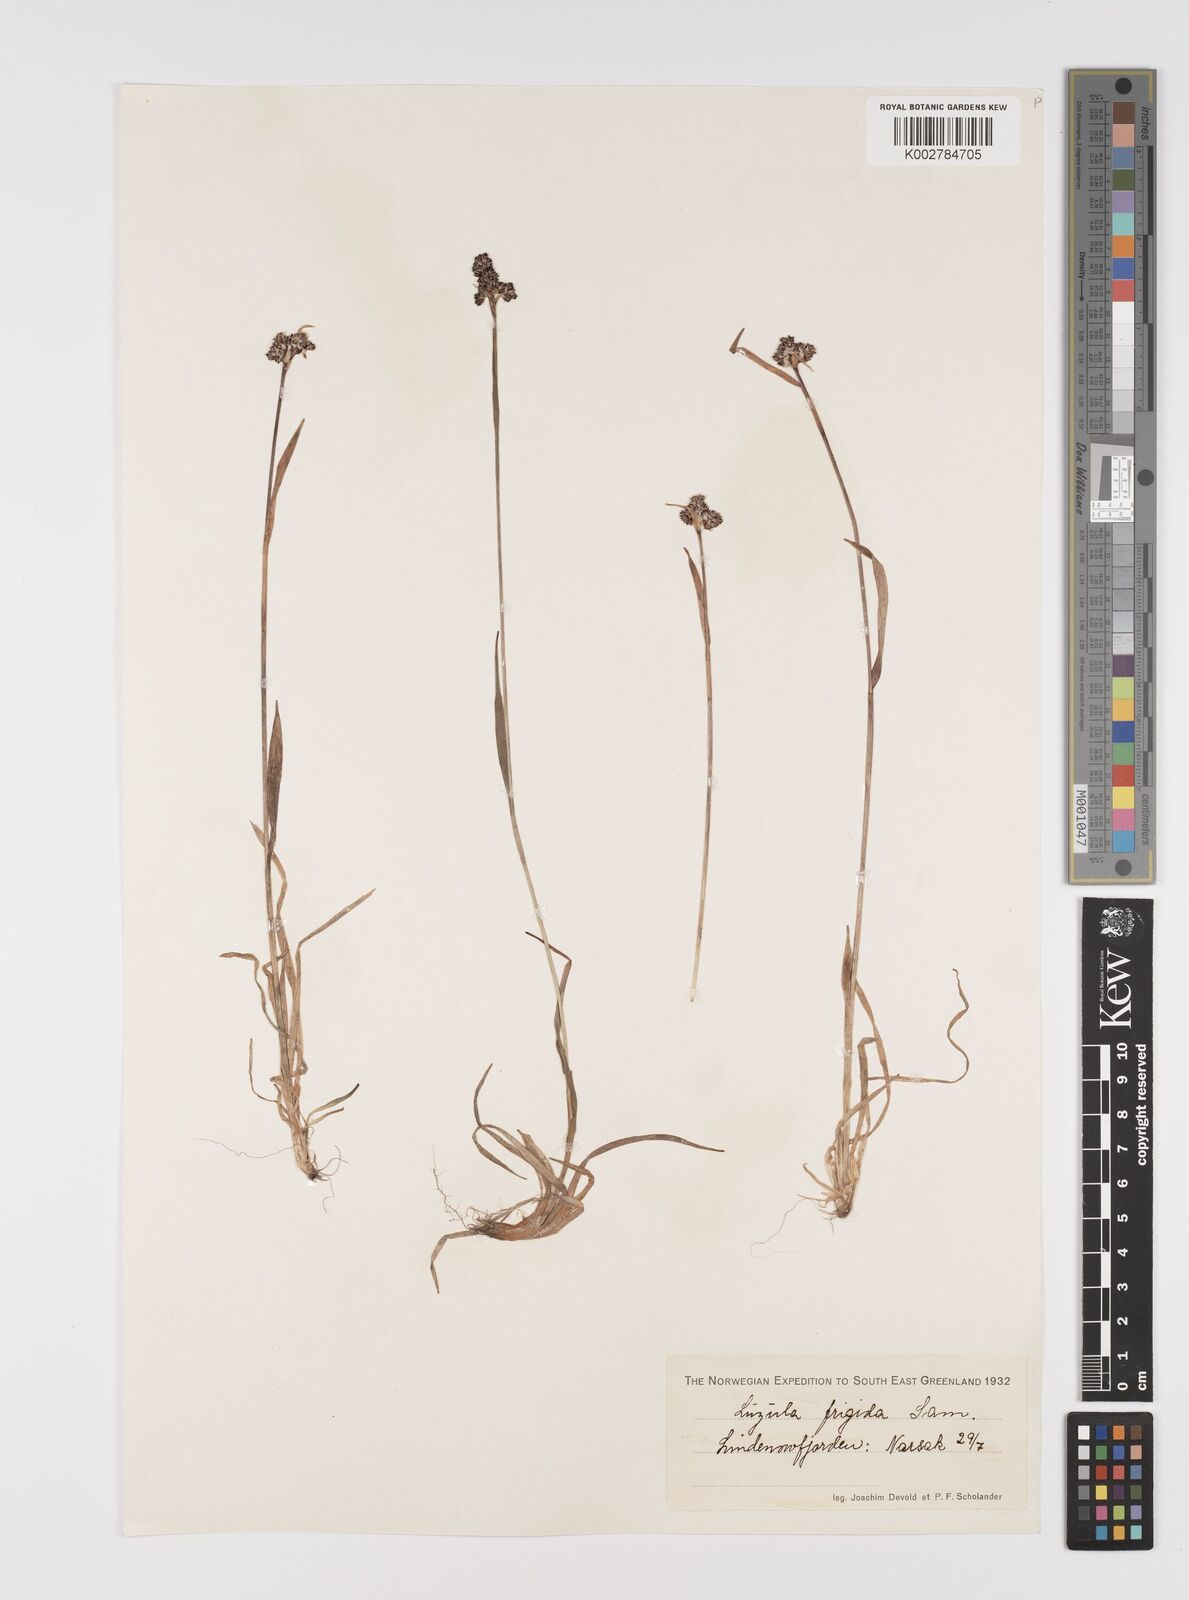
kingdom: Plantae
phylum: Tracheophyta
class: Liliopsida
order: Poales
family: Juncaceae
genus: Luzula
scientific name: Luzula multiflora
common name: Heath wood-rush
